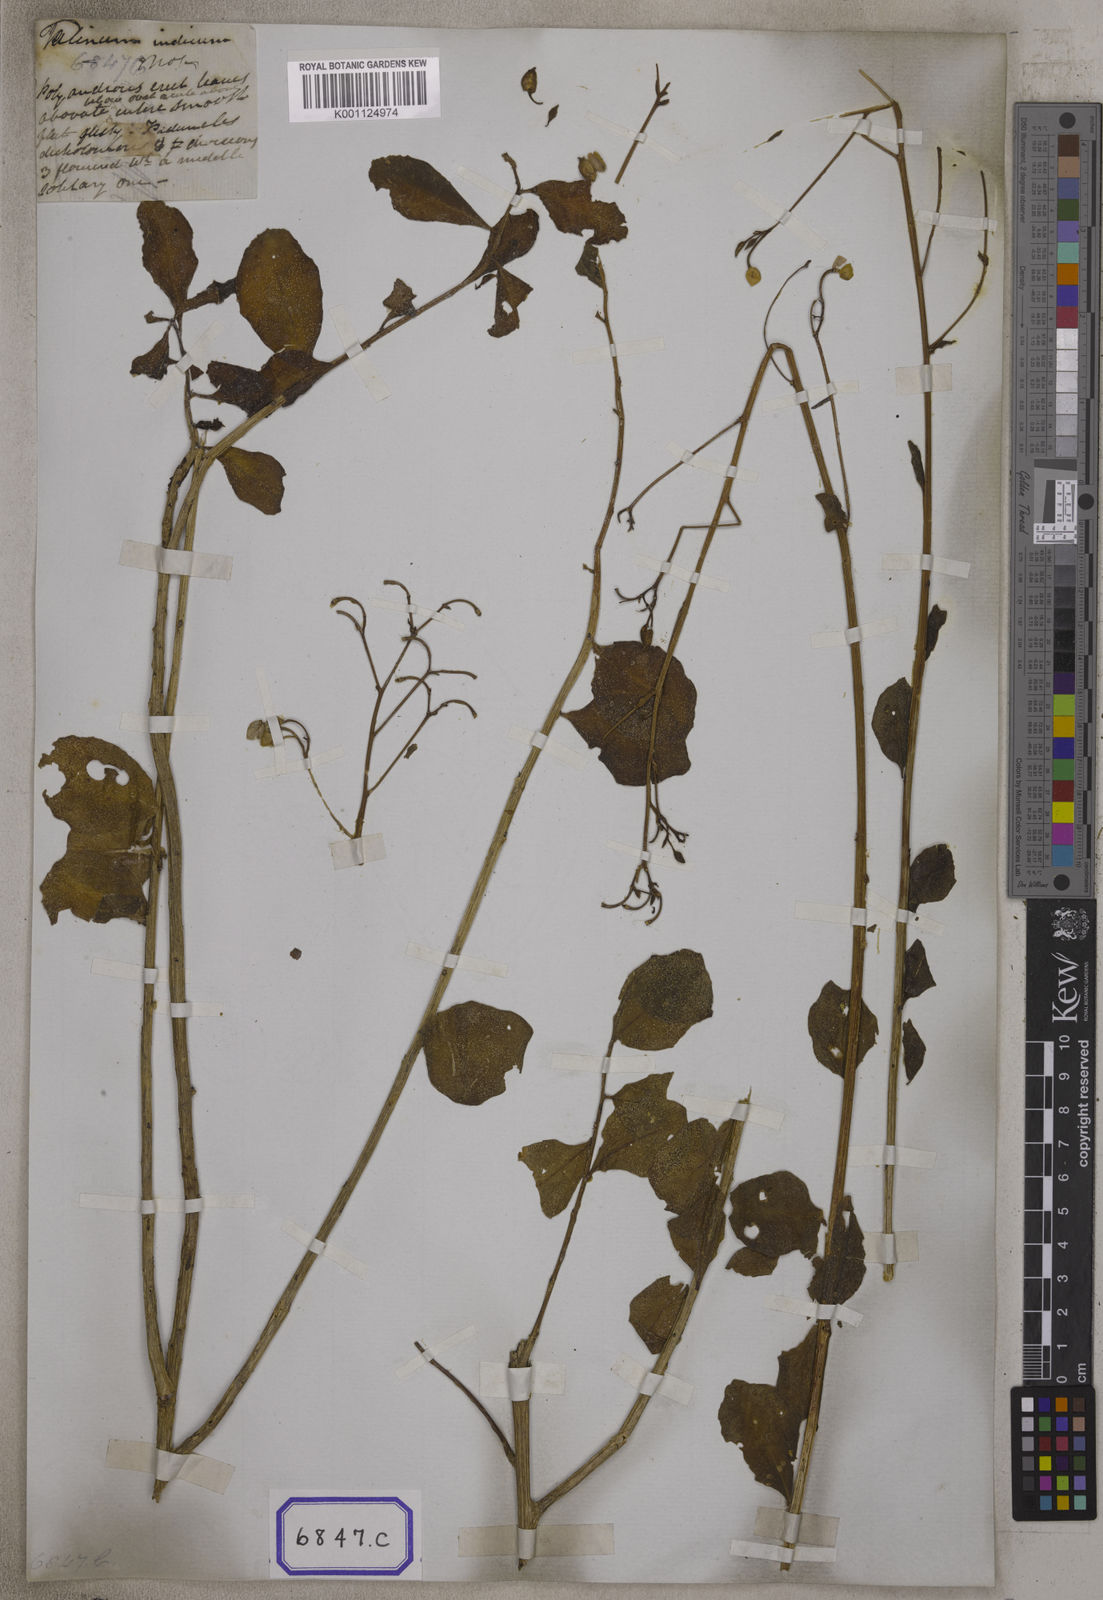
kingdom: Plantae
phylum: Tracheophyta
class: Magnoliopsida
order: Caryophyllales
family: Talinaceae
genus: Talinum
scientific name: Talinum portulacifolium
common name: Flameflower
